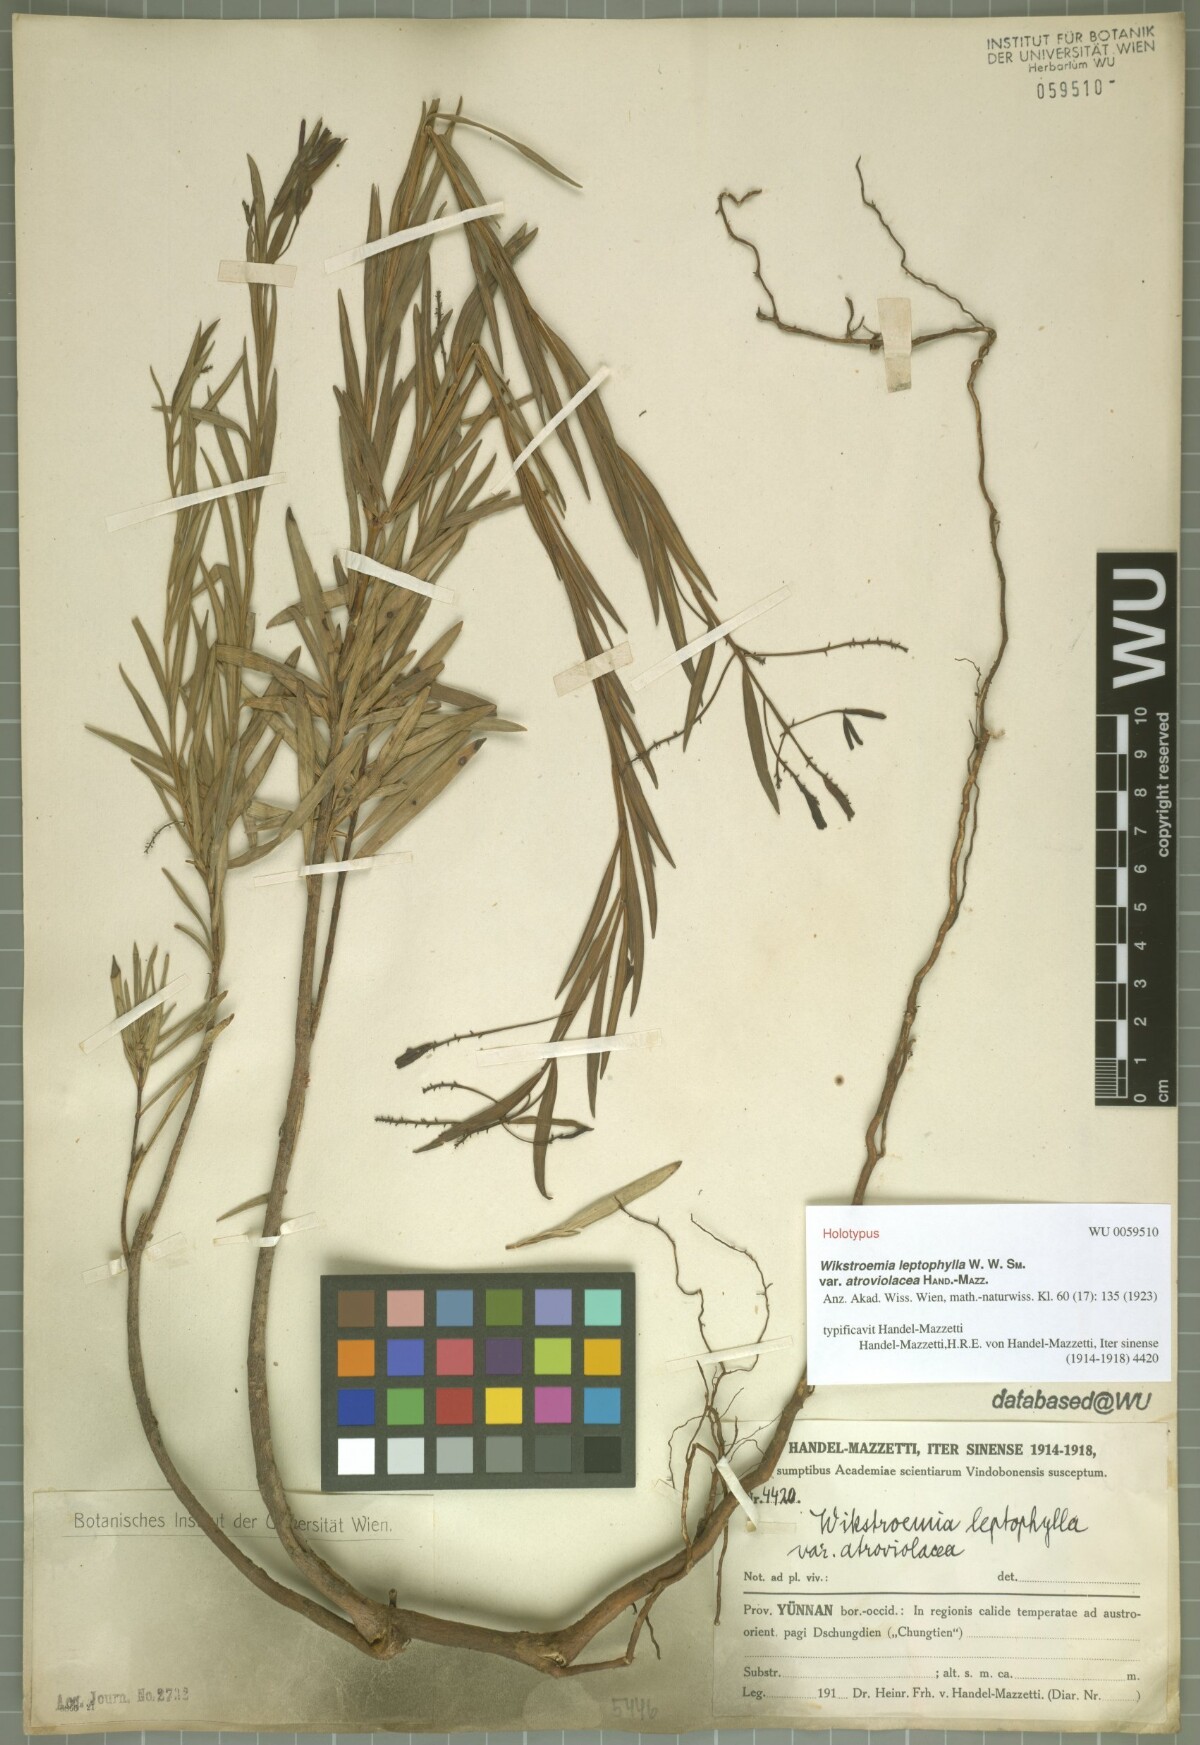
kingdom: Plantae
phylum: Tracheophyta
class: Magnoliopsida
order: Malvales
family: Thymelaeaceae
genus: Wikstroemia
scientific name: Wikstroemia leptophylla
